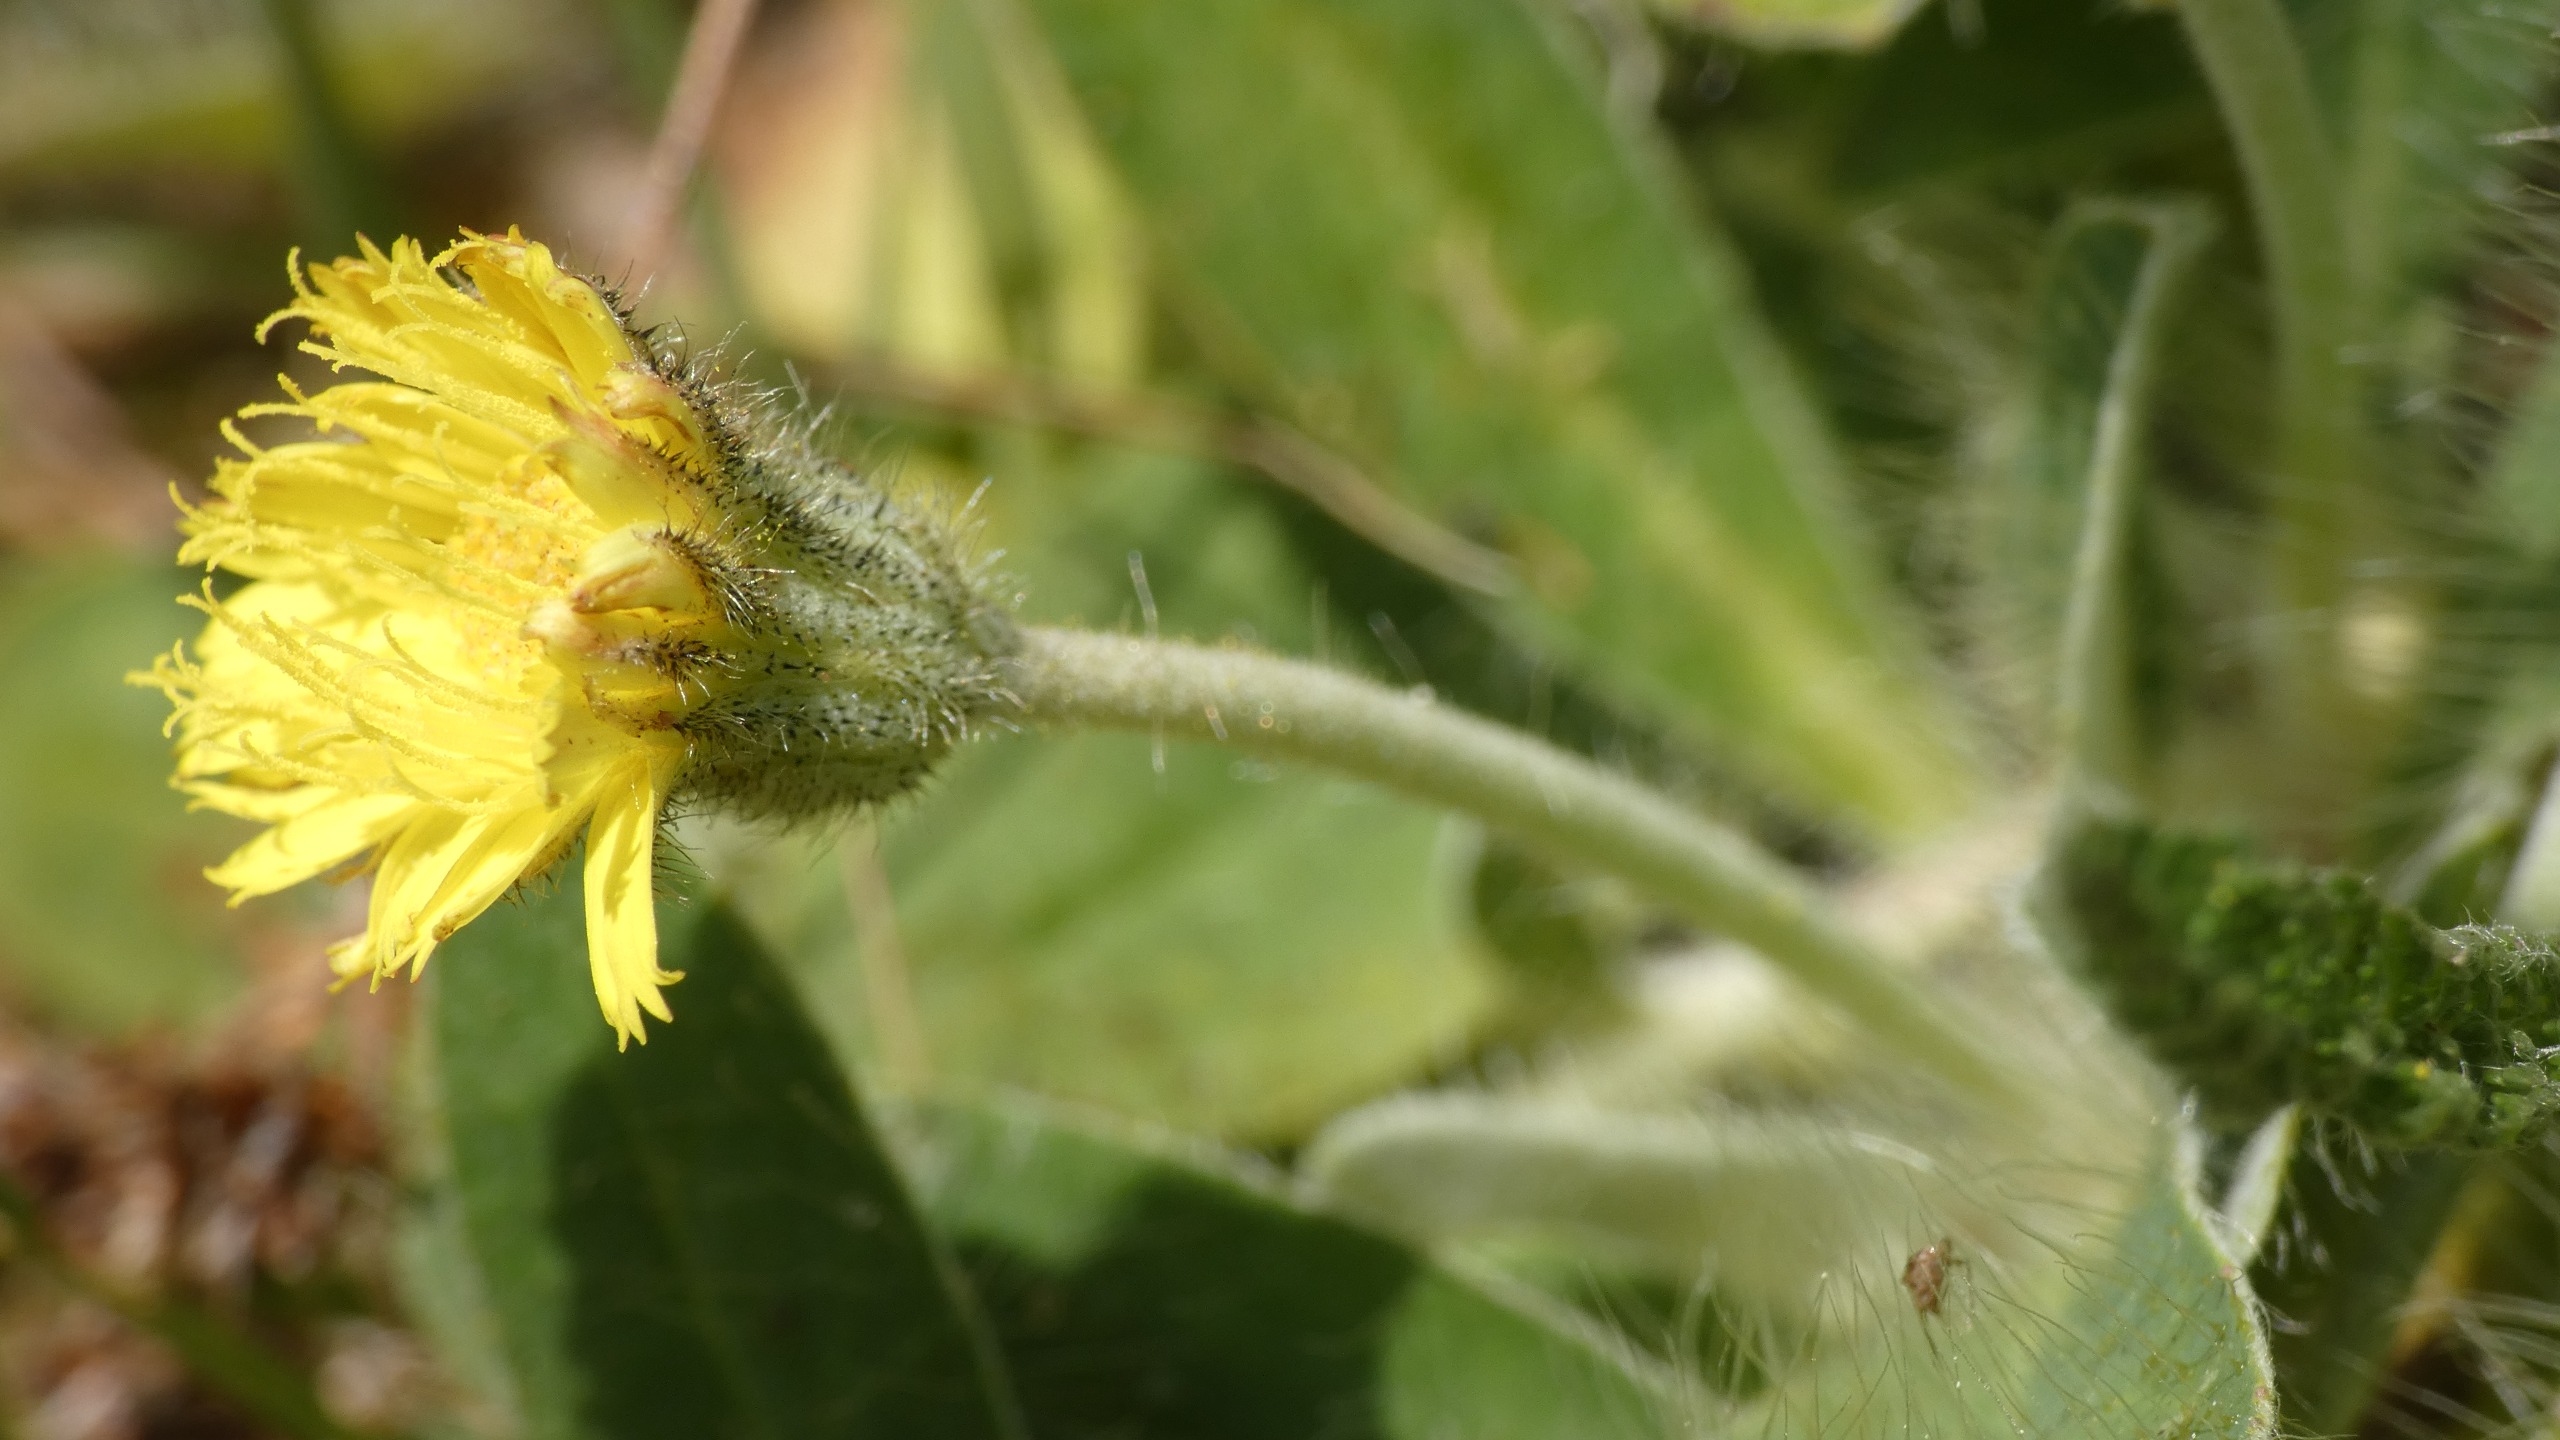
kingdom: Plantae
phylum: Tracheophyta
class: Magnoliopsida
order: Asterales
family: Asteraceae
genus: Pilosella
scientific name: Pilosella officinarum
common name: Håret høgeurt
